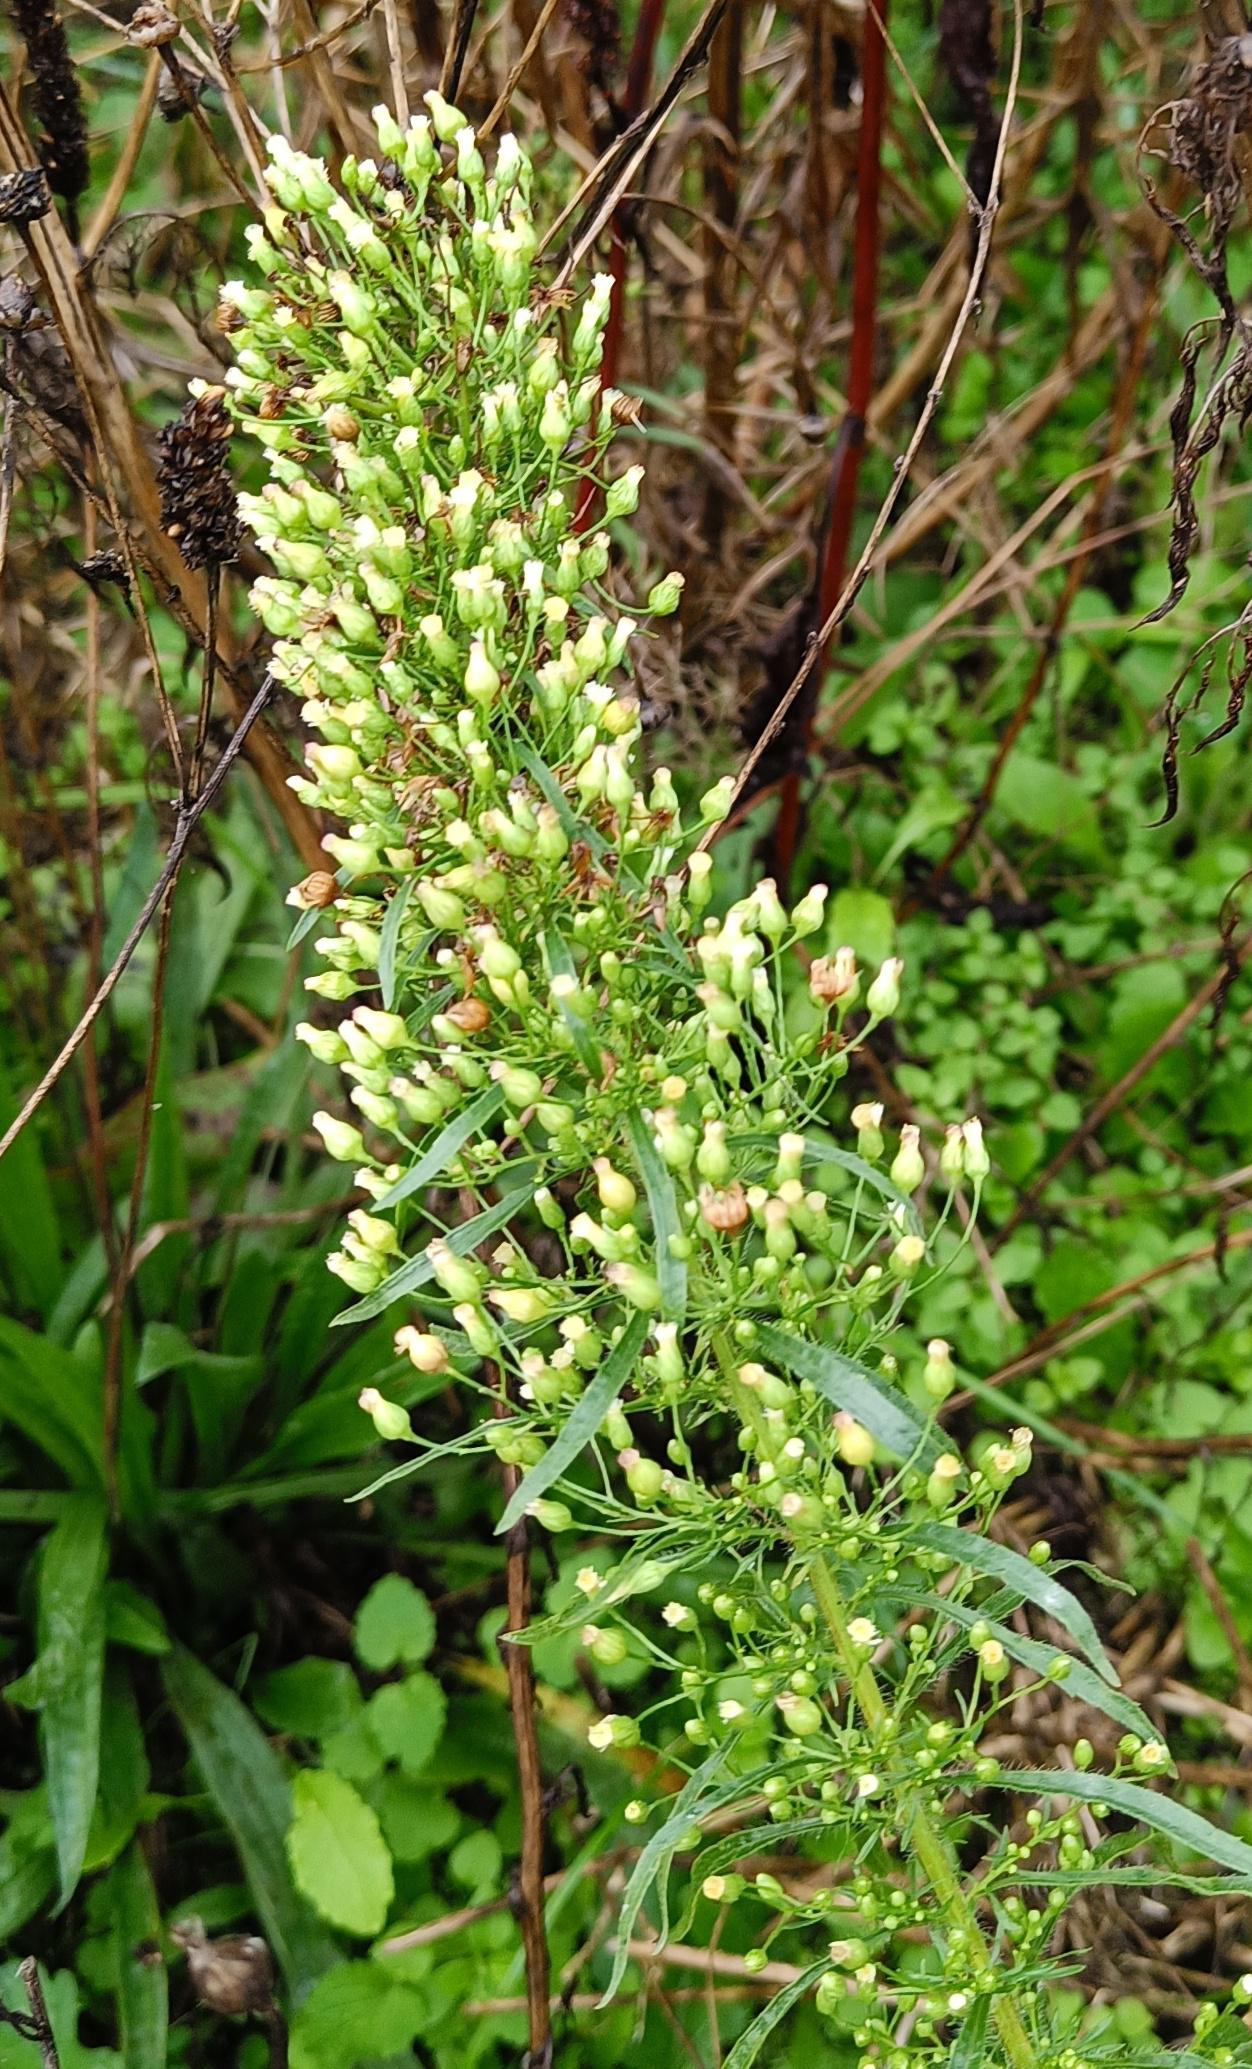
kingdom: Plantae
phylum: Tracheophyta
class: Magnoliopsida
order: Asterales
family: Asteraceae
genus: Erigeron
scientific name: Erigeron canadensis
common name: Kanadisk bakkestjerne
